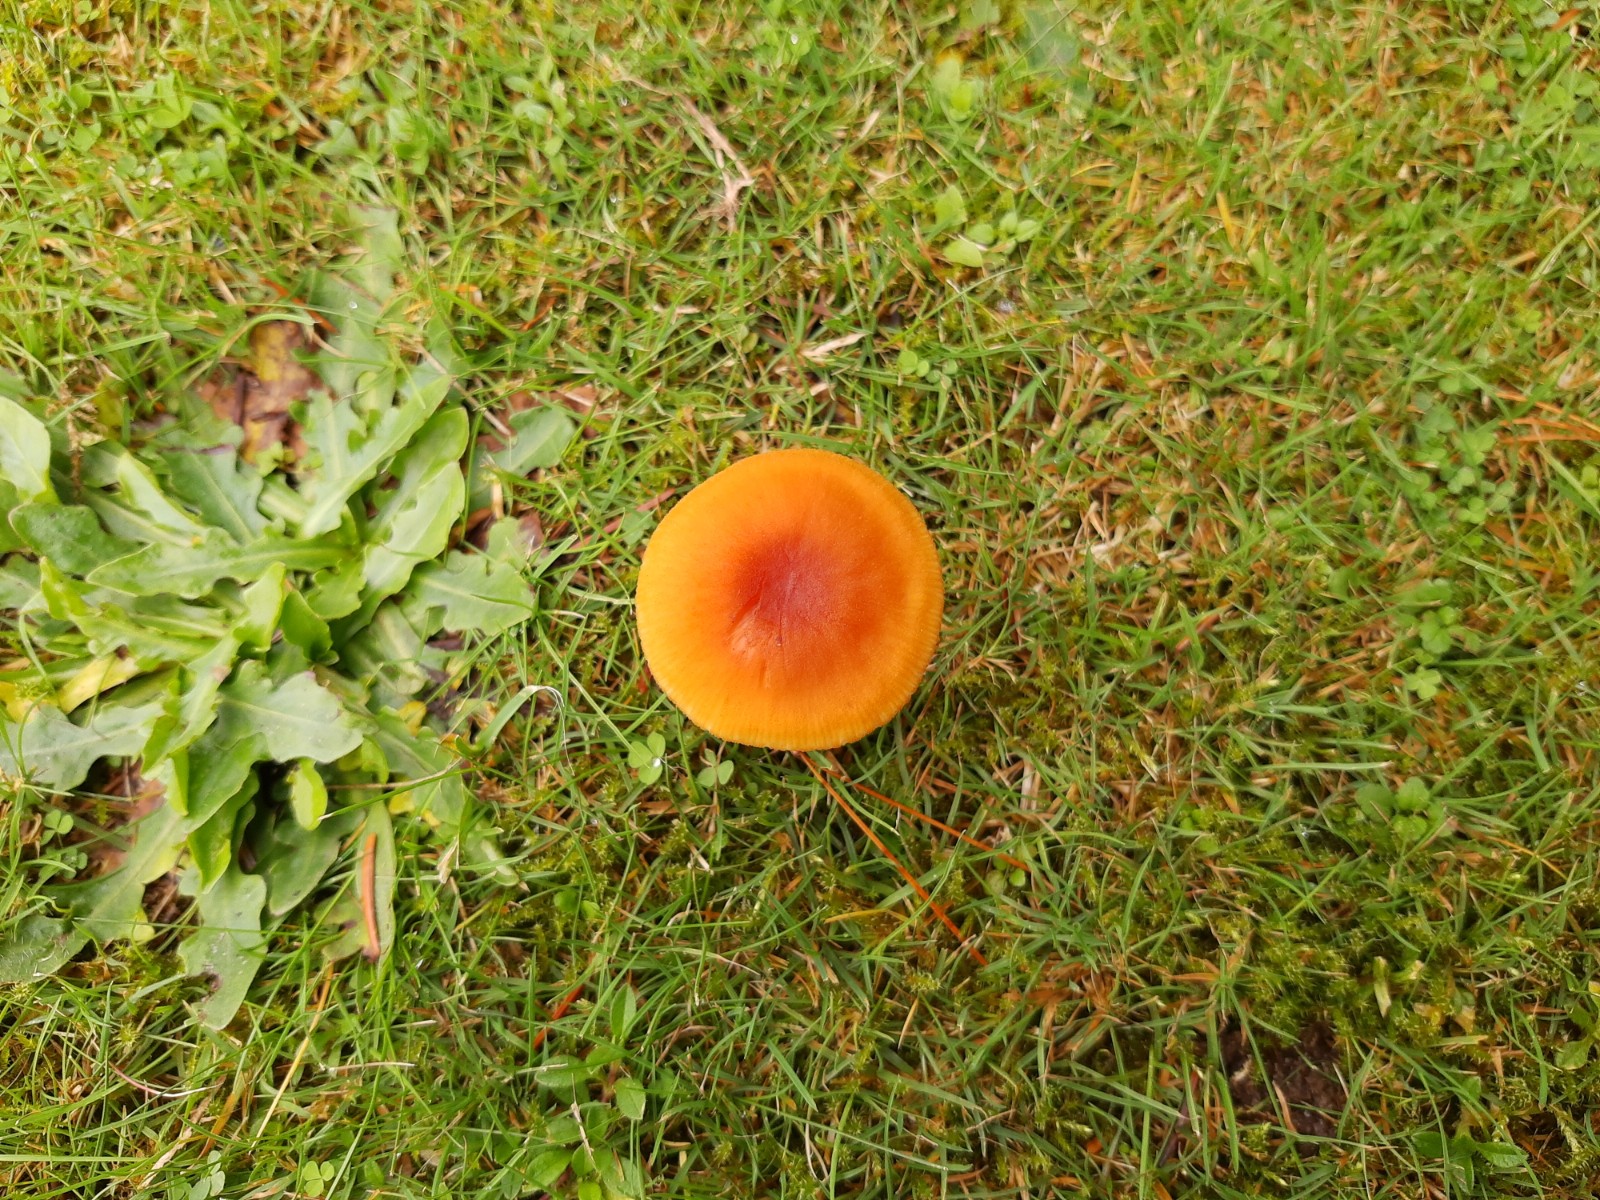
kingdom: Fungi
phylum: Basidiomycota
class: Agaricomycetes
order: Agaricales
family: Hydnangiaceae
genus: Laccaria
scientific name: Laccaria proxima
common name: stor ametysthat
